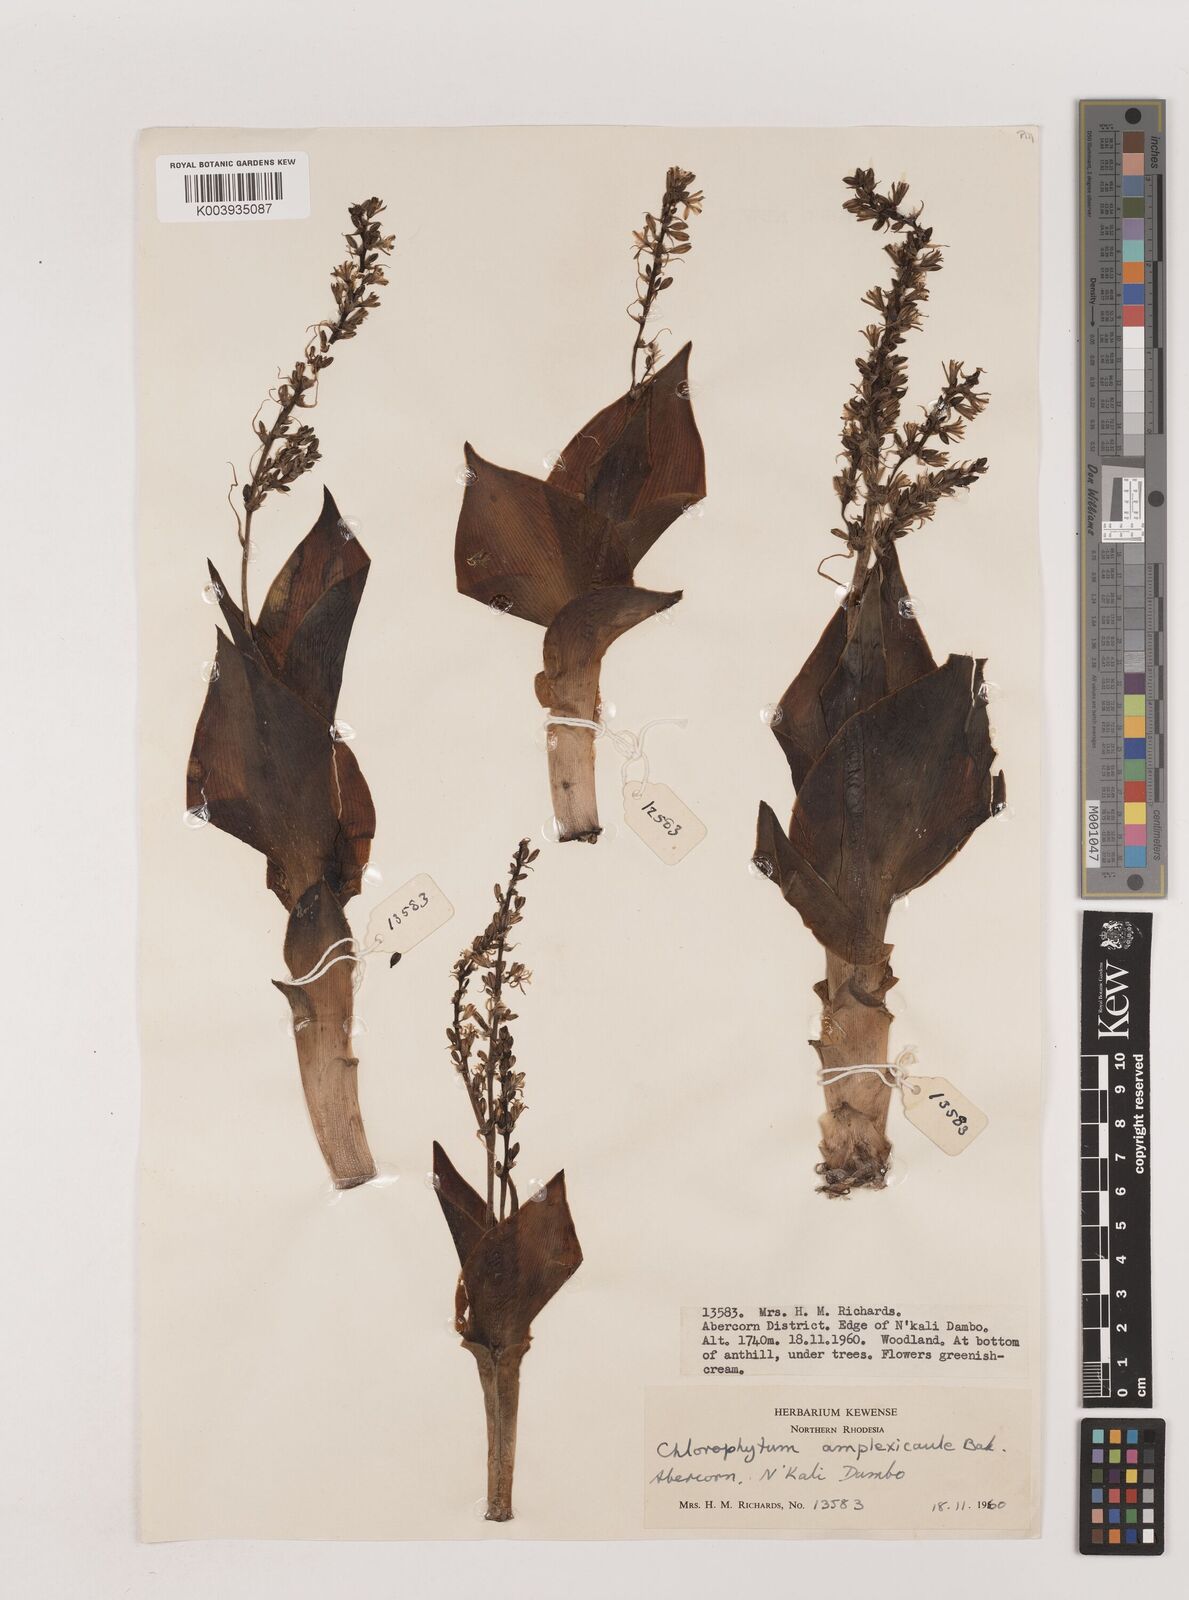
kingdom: Plantae
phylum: Tracheophyta
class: Liliopsida
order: Asparagales
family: Asparagaceae
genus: Chlorophytum
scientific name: Chlorophytum blepharophyllum
